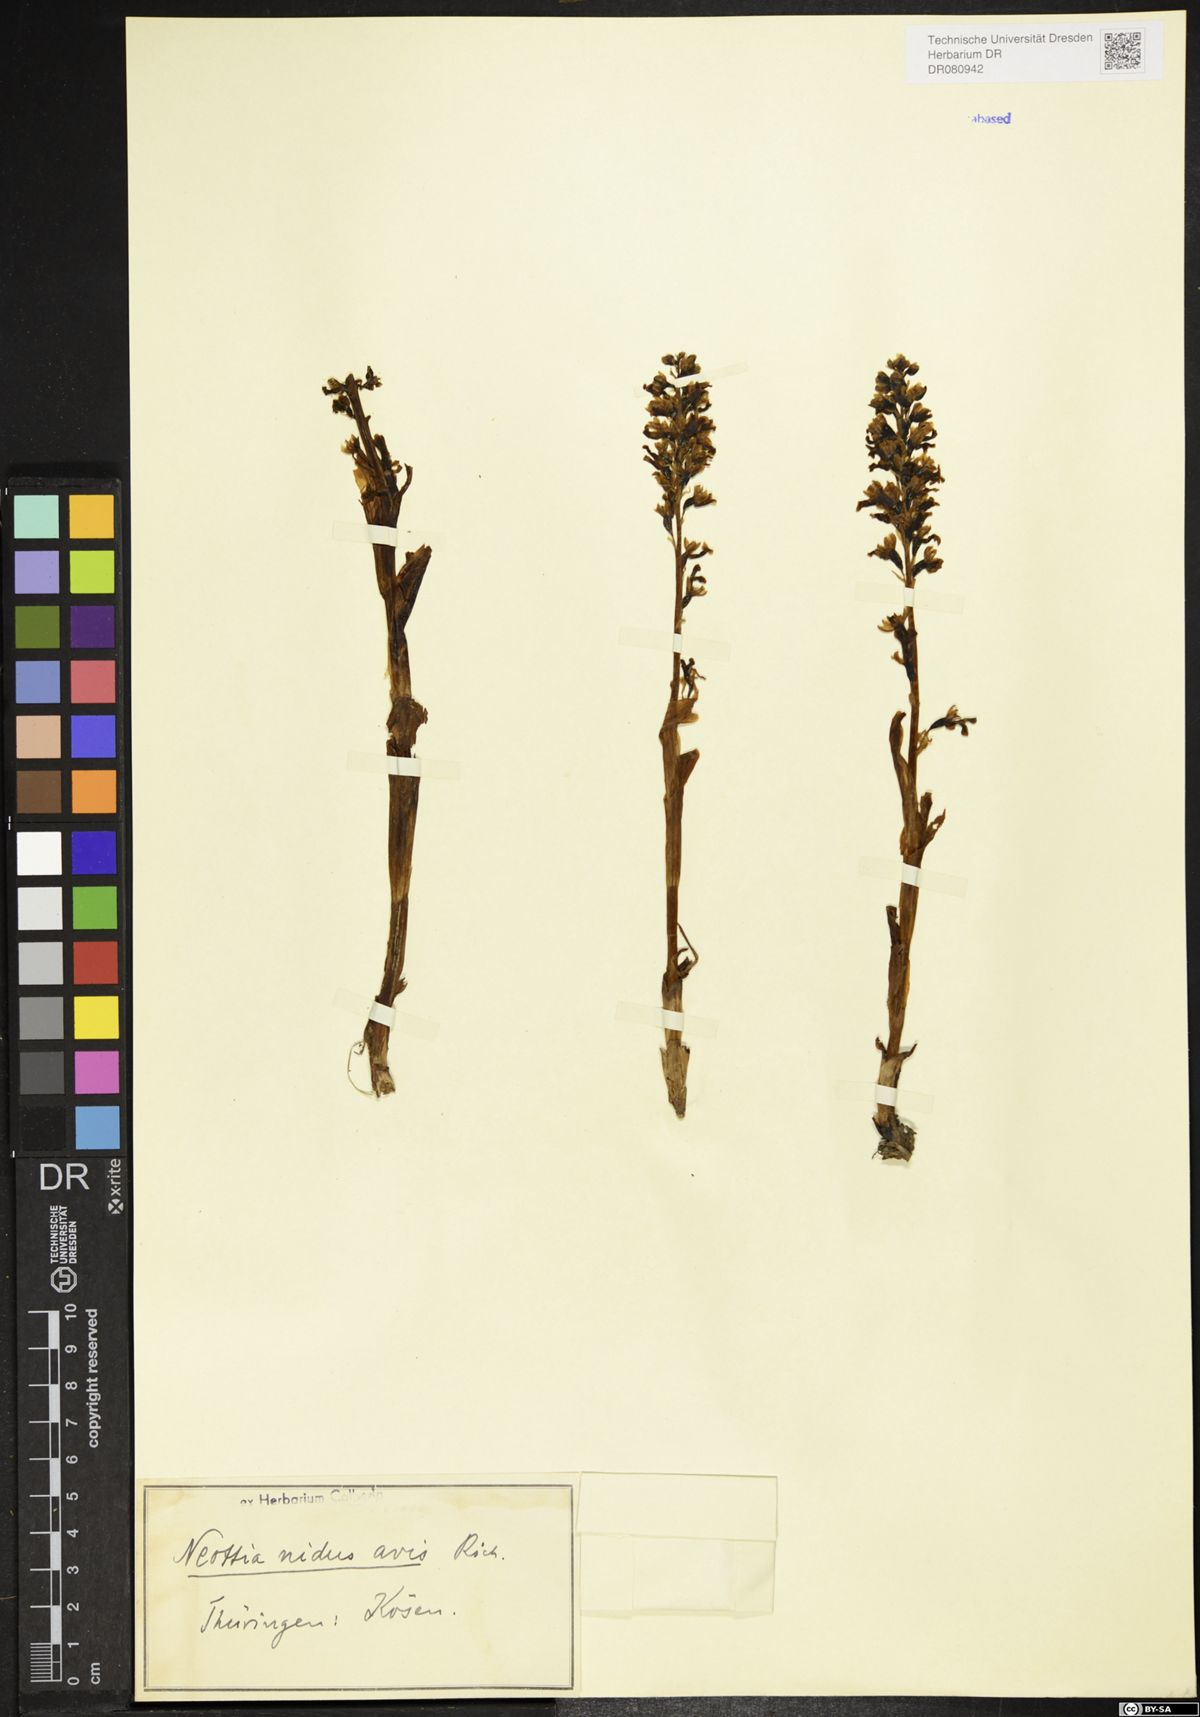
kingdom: Plantae
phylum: Tracheophyta
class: Liliopsida
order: Asparagales
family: Orchidaceae
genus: Neottia
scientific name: Neottia nidus-avis
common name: Bird's-nest orchid
